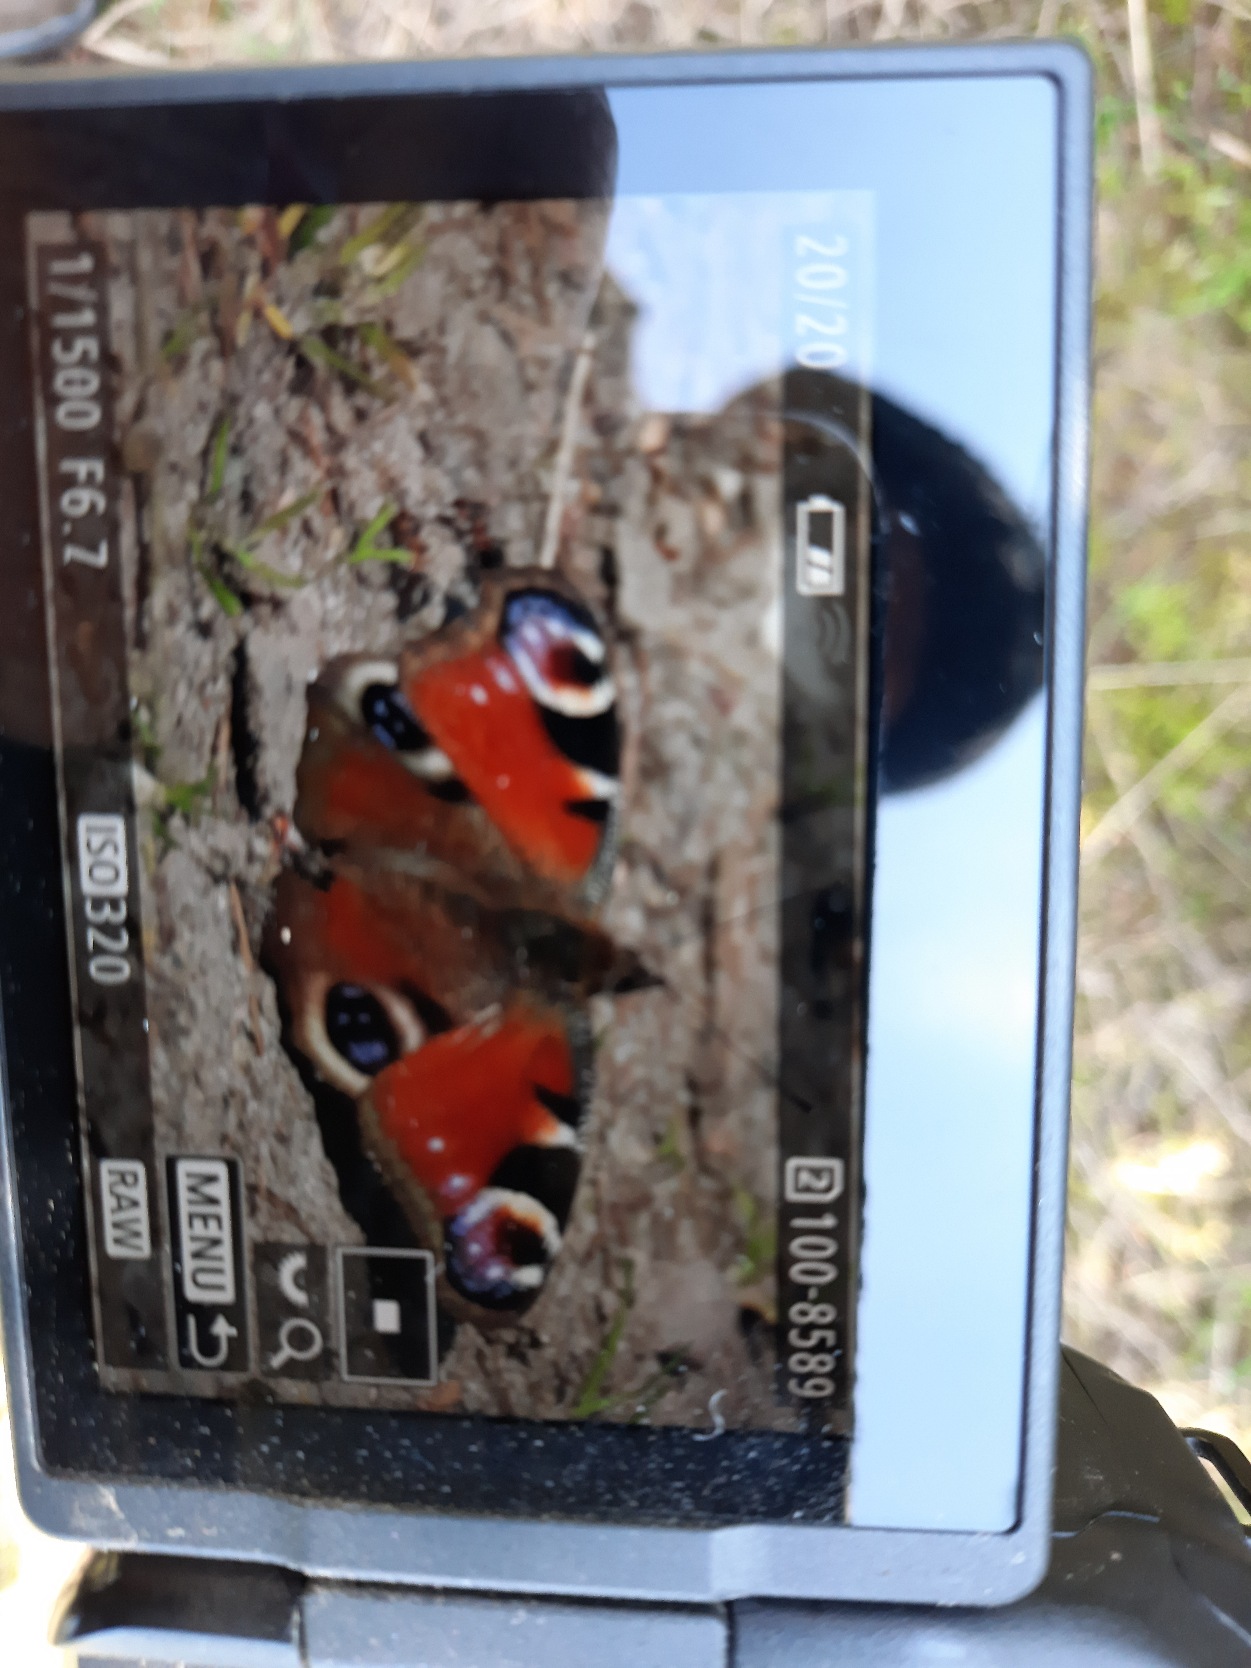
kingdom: Animalia
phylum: Arthropoda
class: Insecta
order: Lepidoptera
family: Nymphalidae
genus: Aglais
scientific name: Aglais io
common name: Dagpåfugleøje
